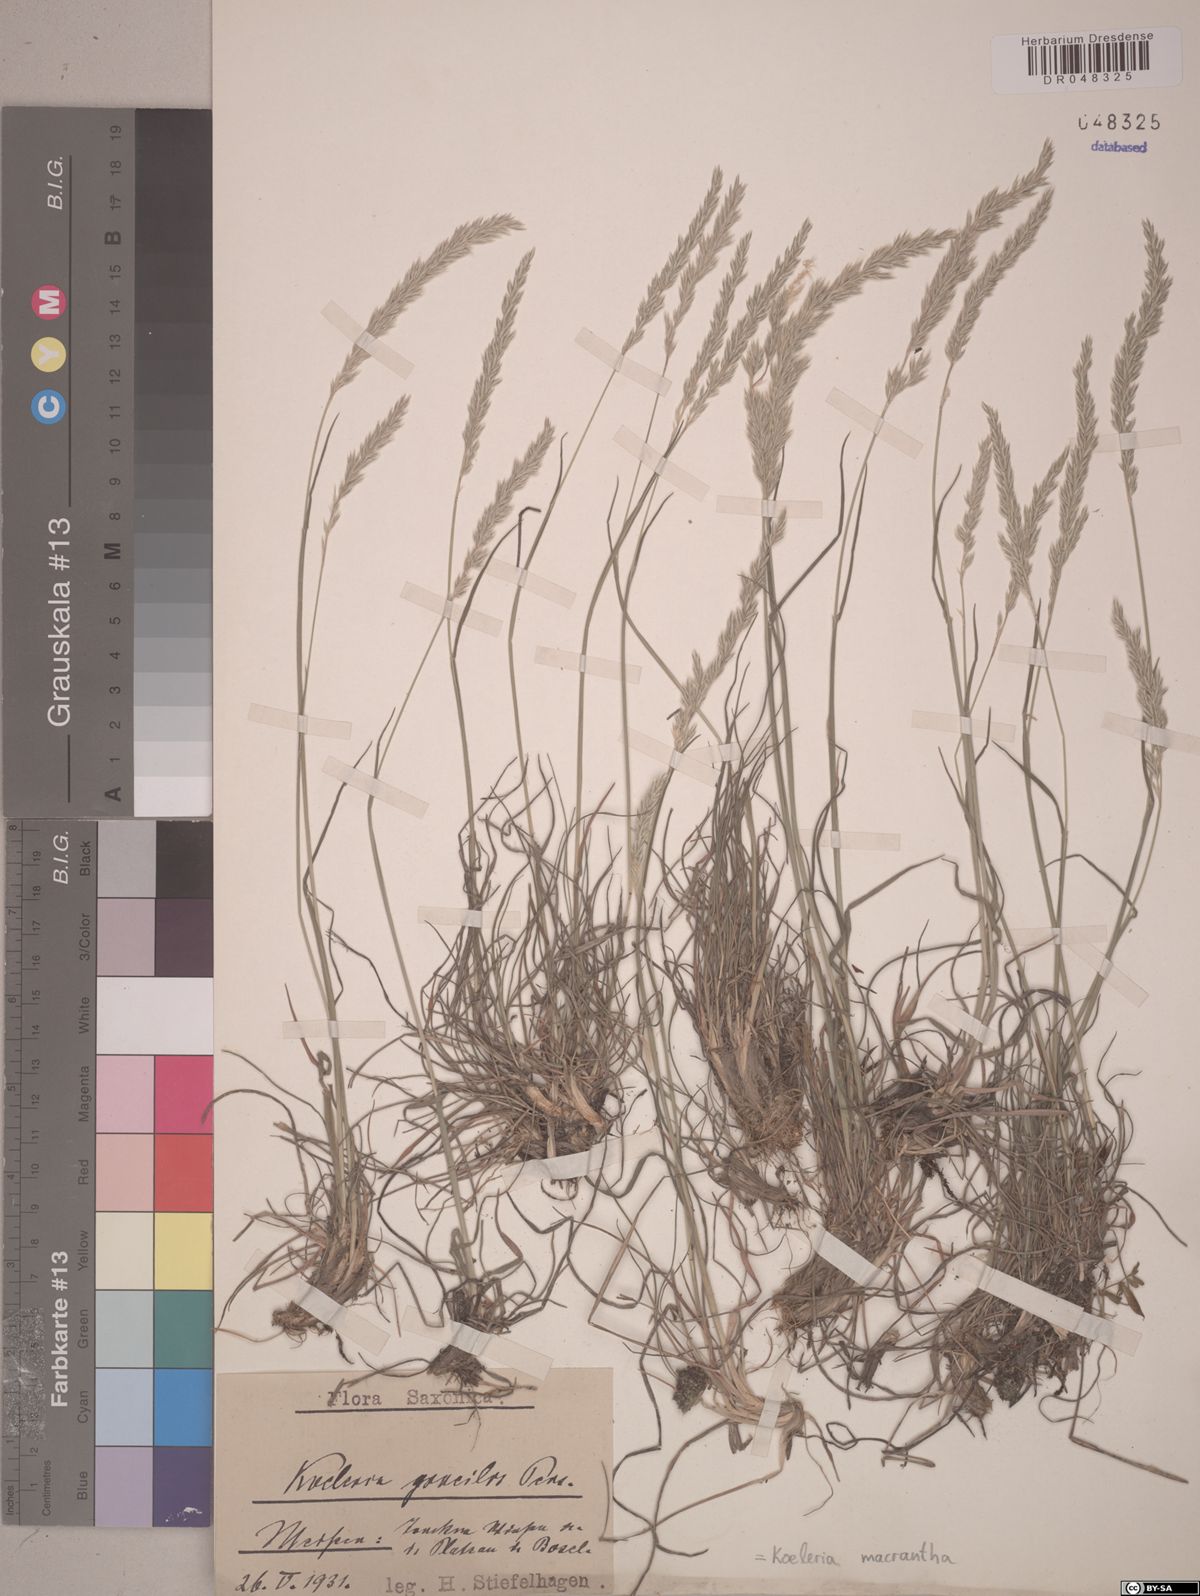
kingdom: Plantae
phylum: Tracheophyta
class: Liliopsida
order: Poales
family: Poaceae
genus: Koeleria
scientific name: Koeleria macrantha
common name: Crested hair-grass
